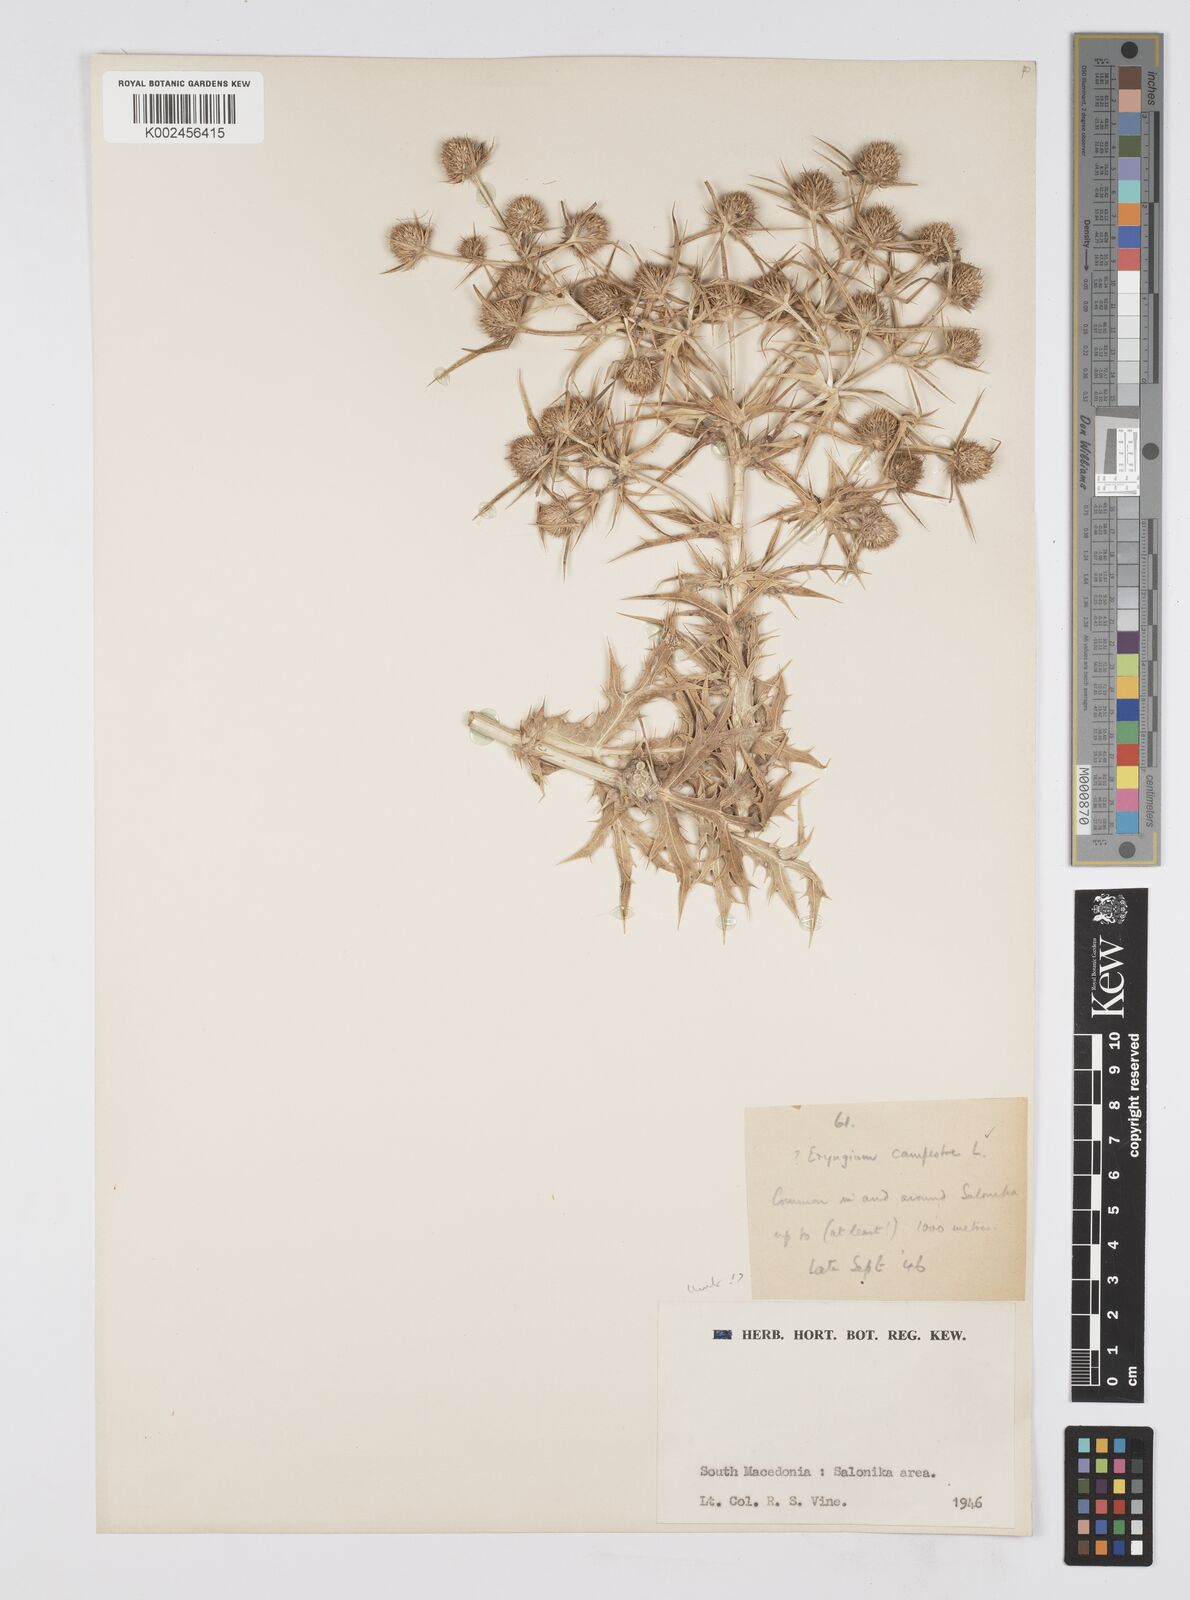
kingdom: Plantae
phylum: Tracheophyta
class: Magnoliopsida
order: Apiales
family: Apiaceae
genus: Eryngium
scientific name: Eryngium campestre
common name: Field eryngo
